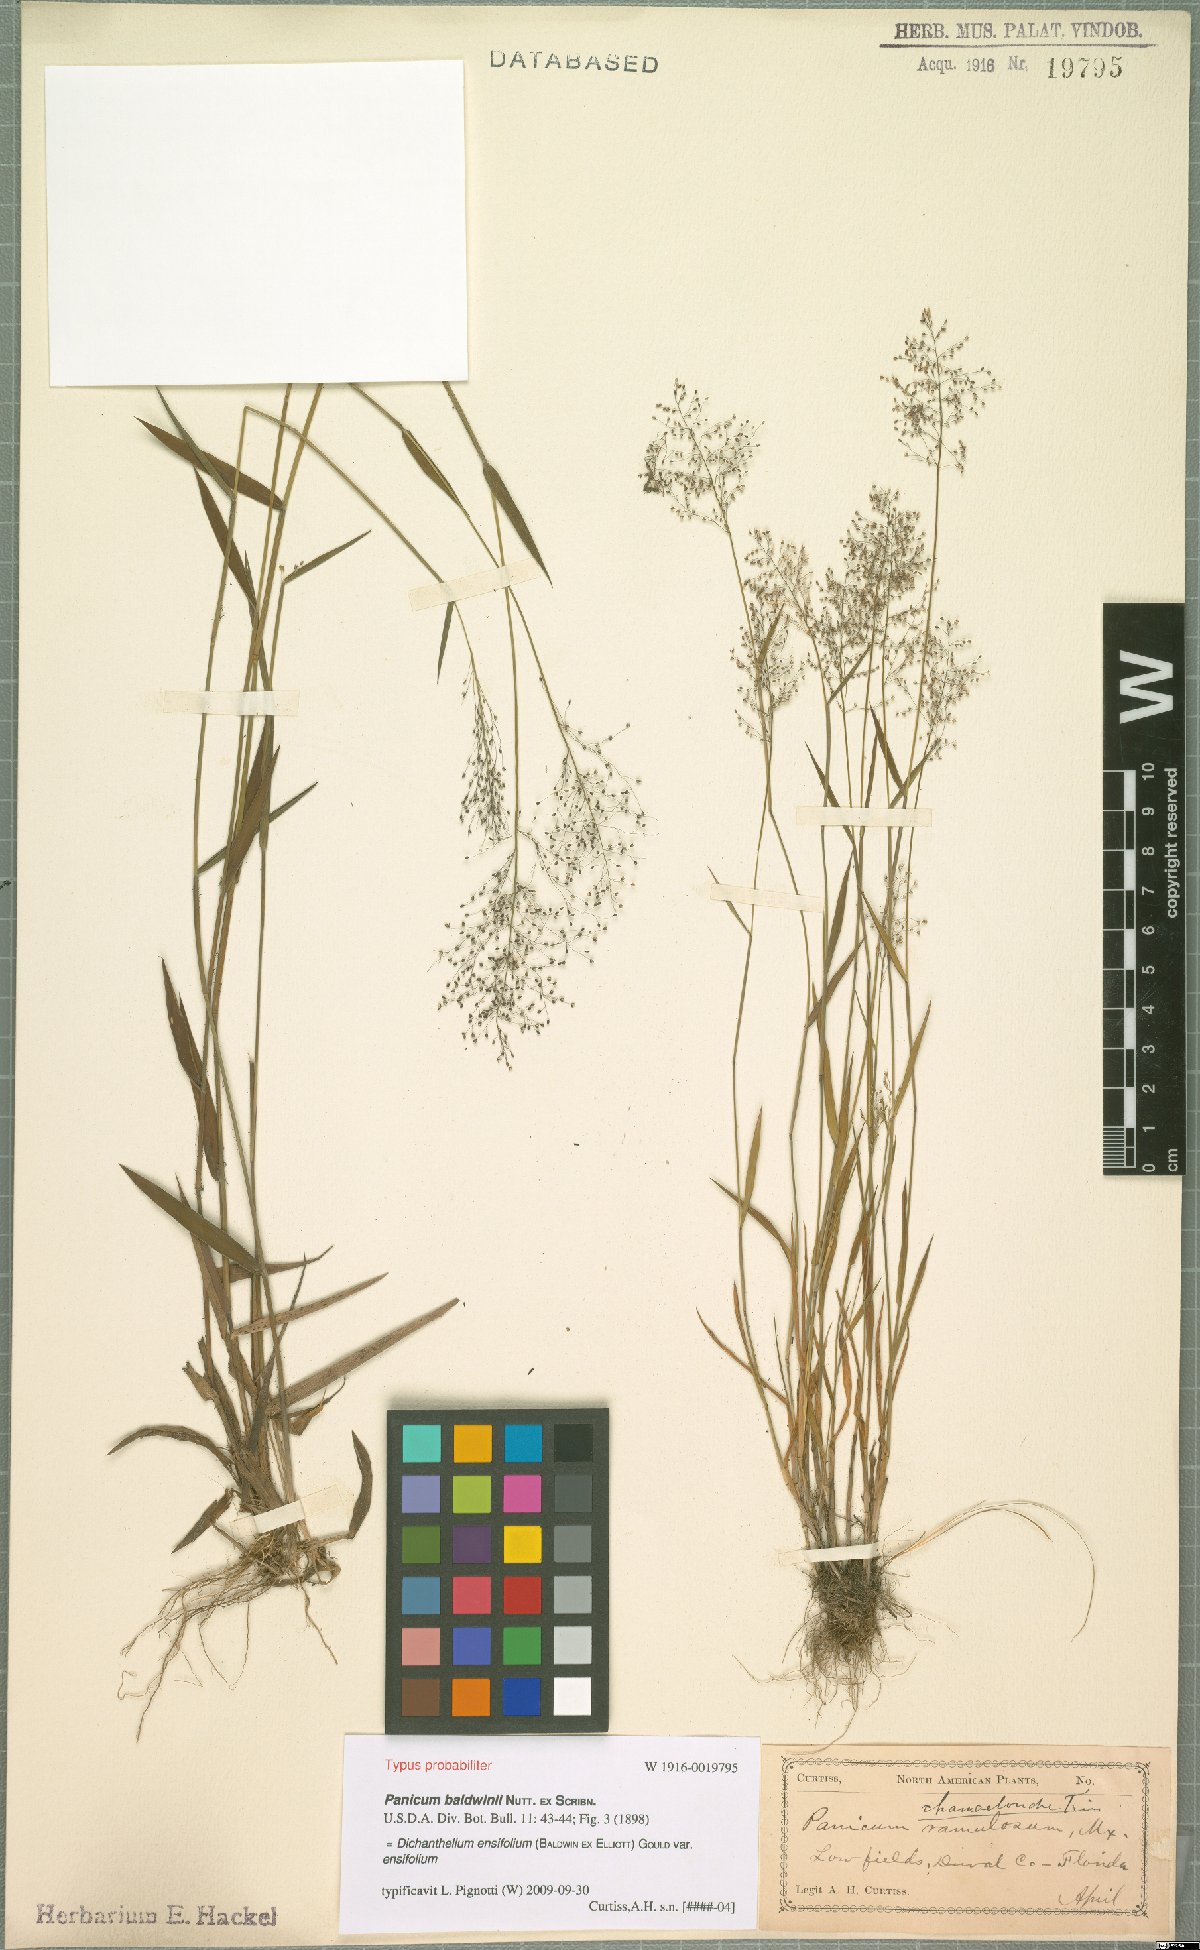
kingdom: Plantae
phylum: Tracheophyta
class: Liliopsida
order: Poales
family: Poaceae
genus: Dichanthelium
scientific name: Dichanthelium ensifolium
